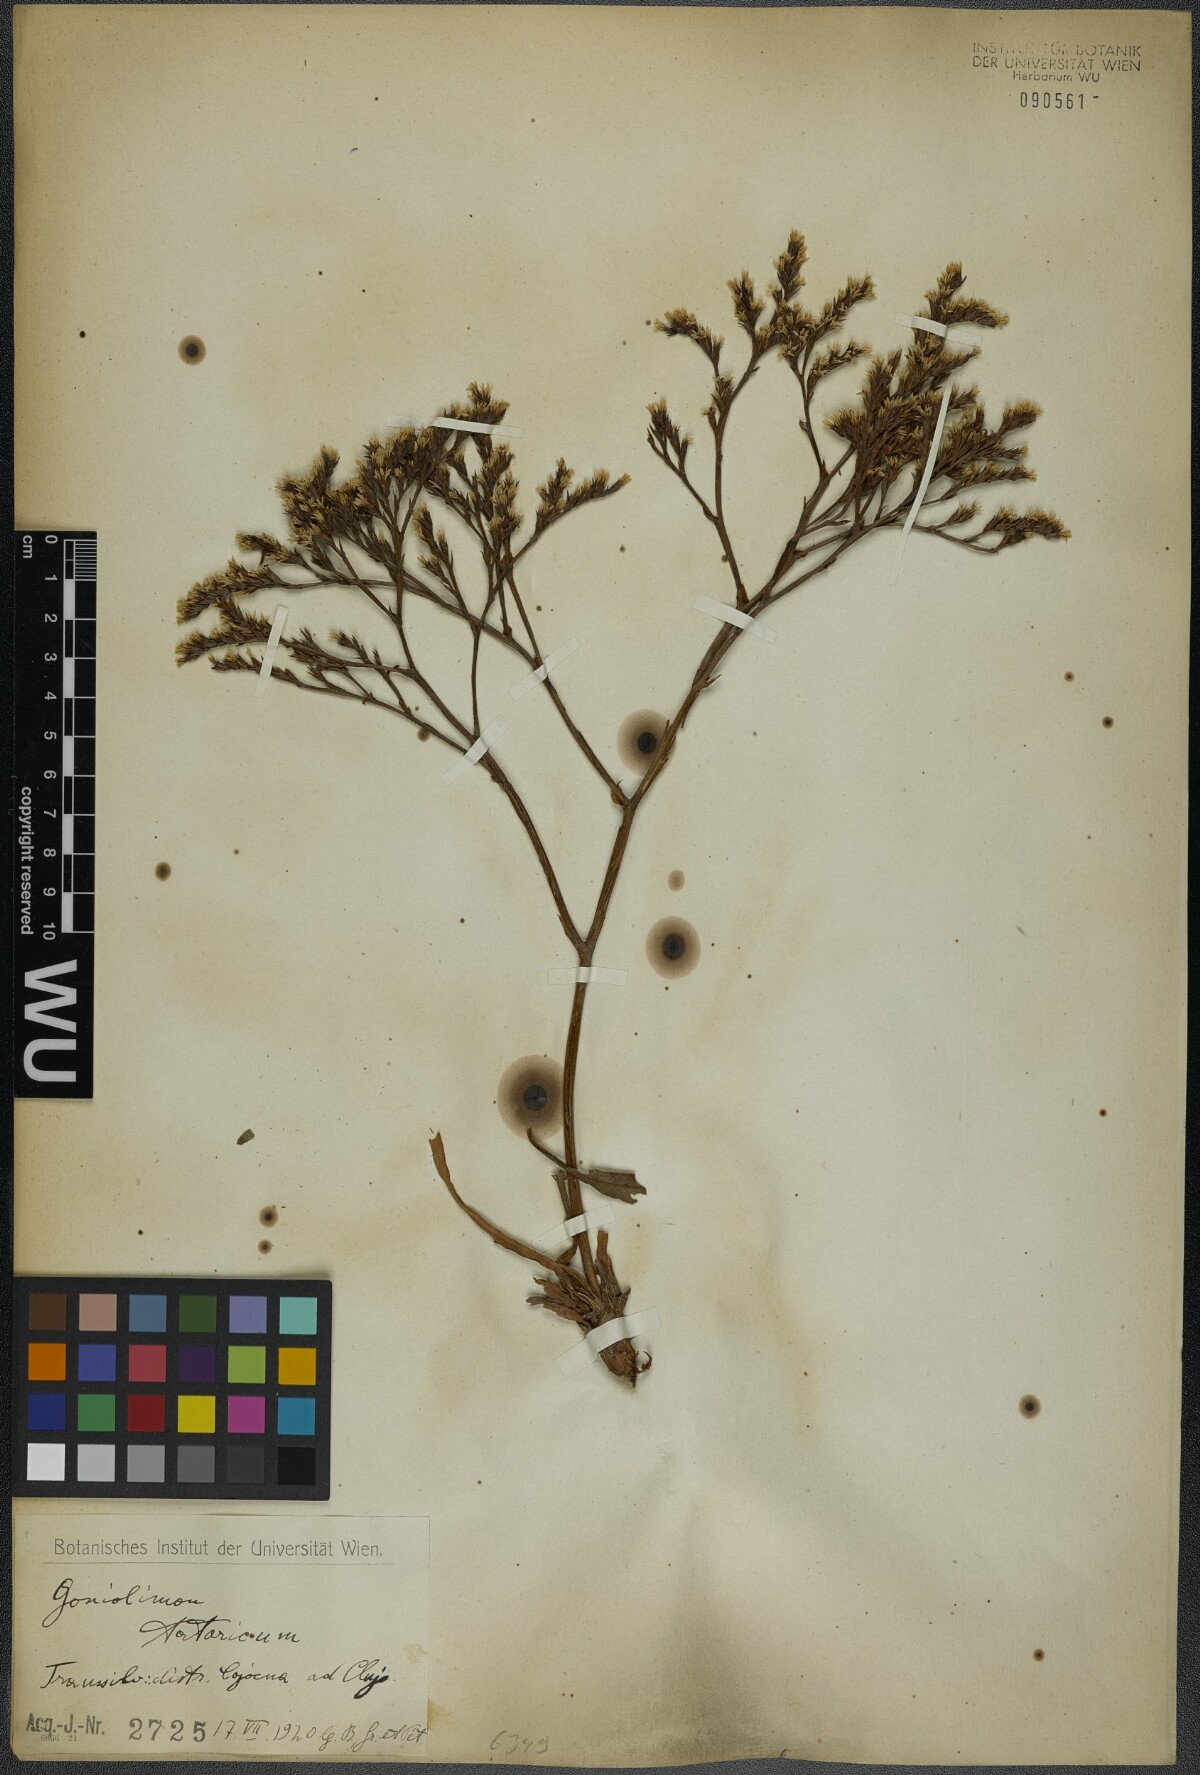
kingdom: Plantae
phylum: Tracheophyta
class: Magnoliopsida
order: Caryophyllales
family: Plumbaginaceae
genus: Goniolimon
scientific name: Goniolimon tataricum
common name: Statice
